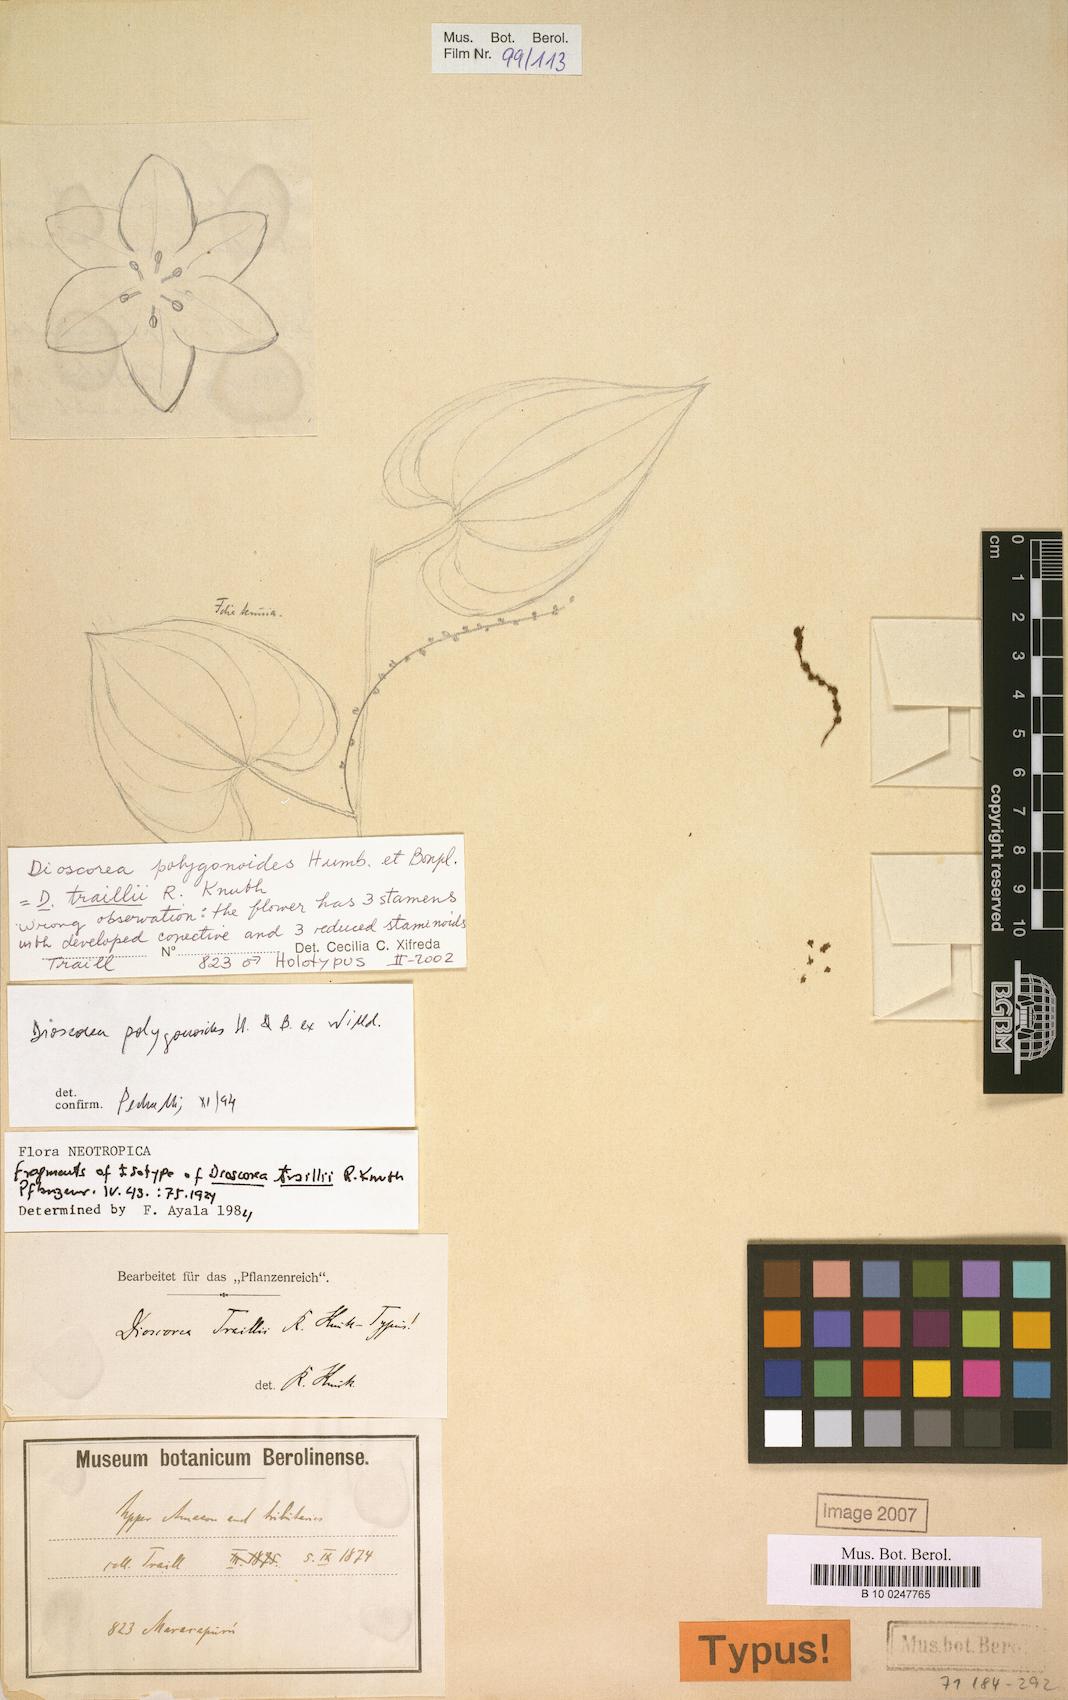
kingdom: Plantae
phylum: Tracheophyta
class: Liliopsida
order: Dioscoreales
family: Dioscoreaceae
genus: Dioscorea
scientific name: Dioscorea polygonoides
